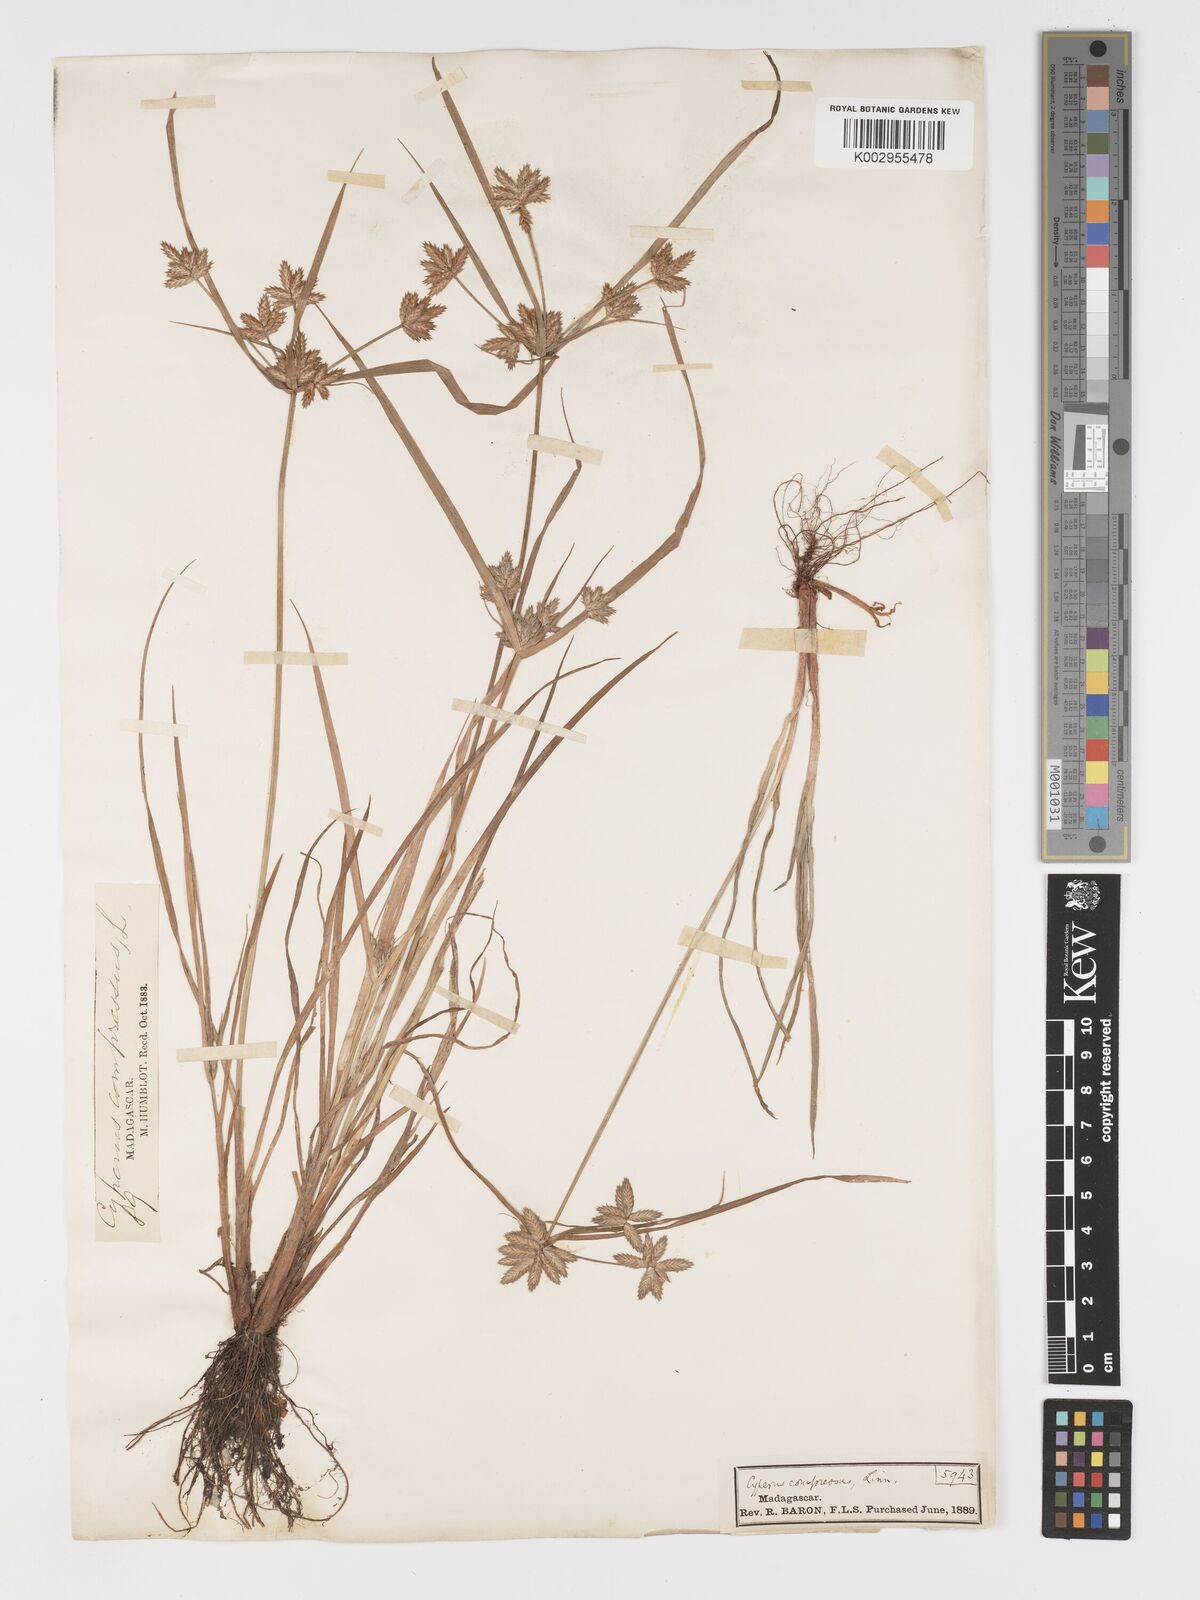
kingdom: Plantae
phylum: Tracheophyta
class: Liliopsida
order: Poales
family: Cyperaceae
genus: Cyperus
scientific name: Cyperus compressus
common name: Poorland flatsedge
